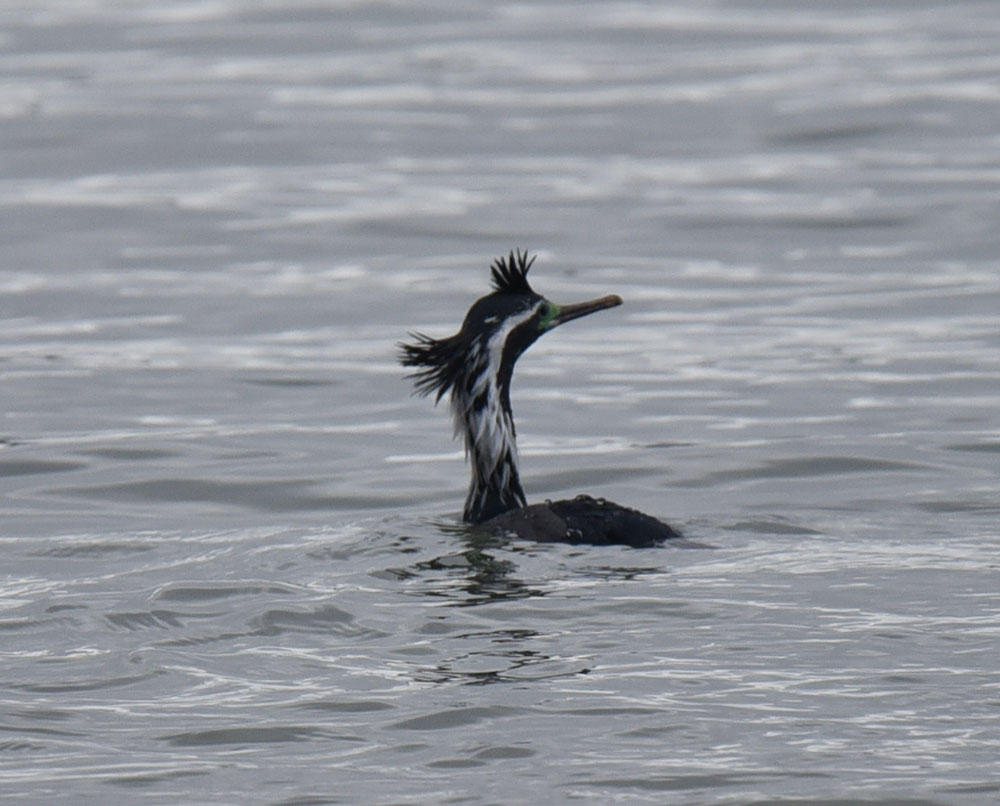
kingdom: Animalia
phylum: Chordata
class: Aves
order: Suliformes
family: Phalacrocoracidae
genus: Phalacrocorax
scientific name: Phalacrocorax punctatus
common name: Spotted shag
